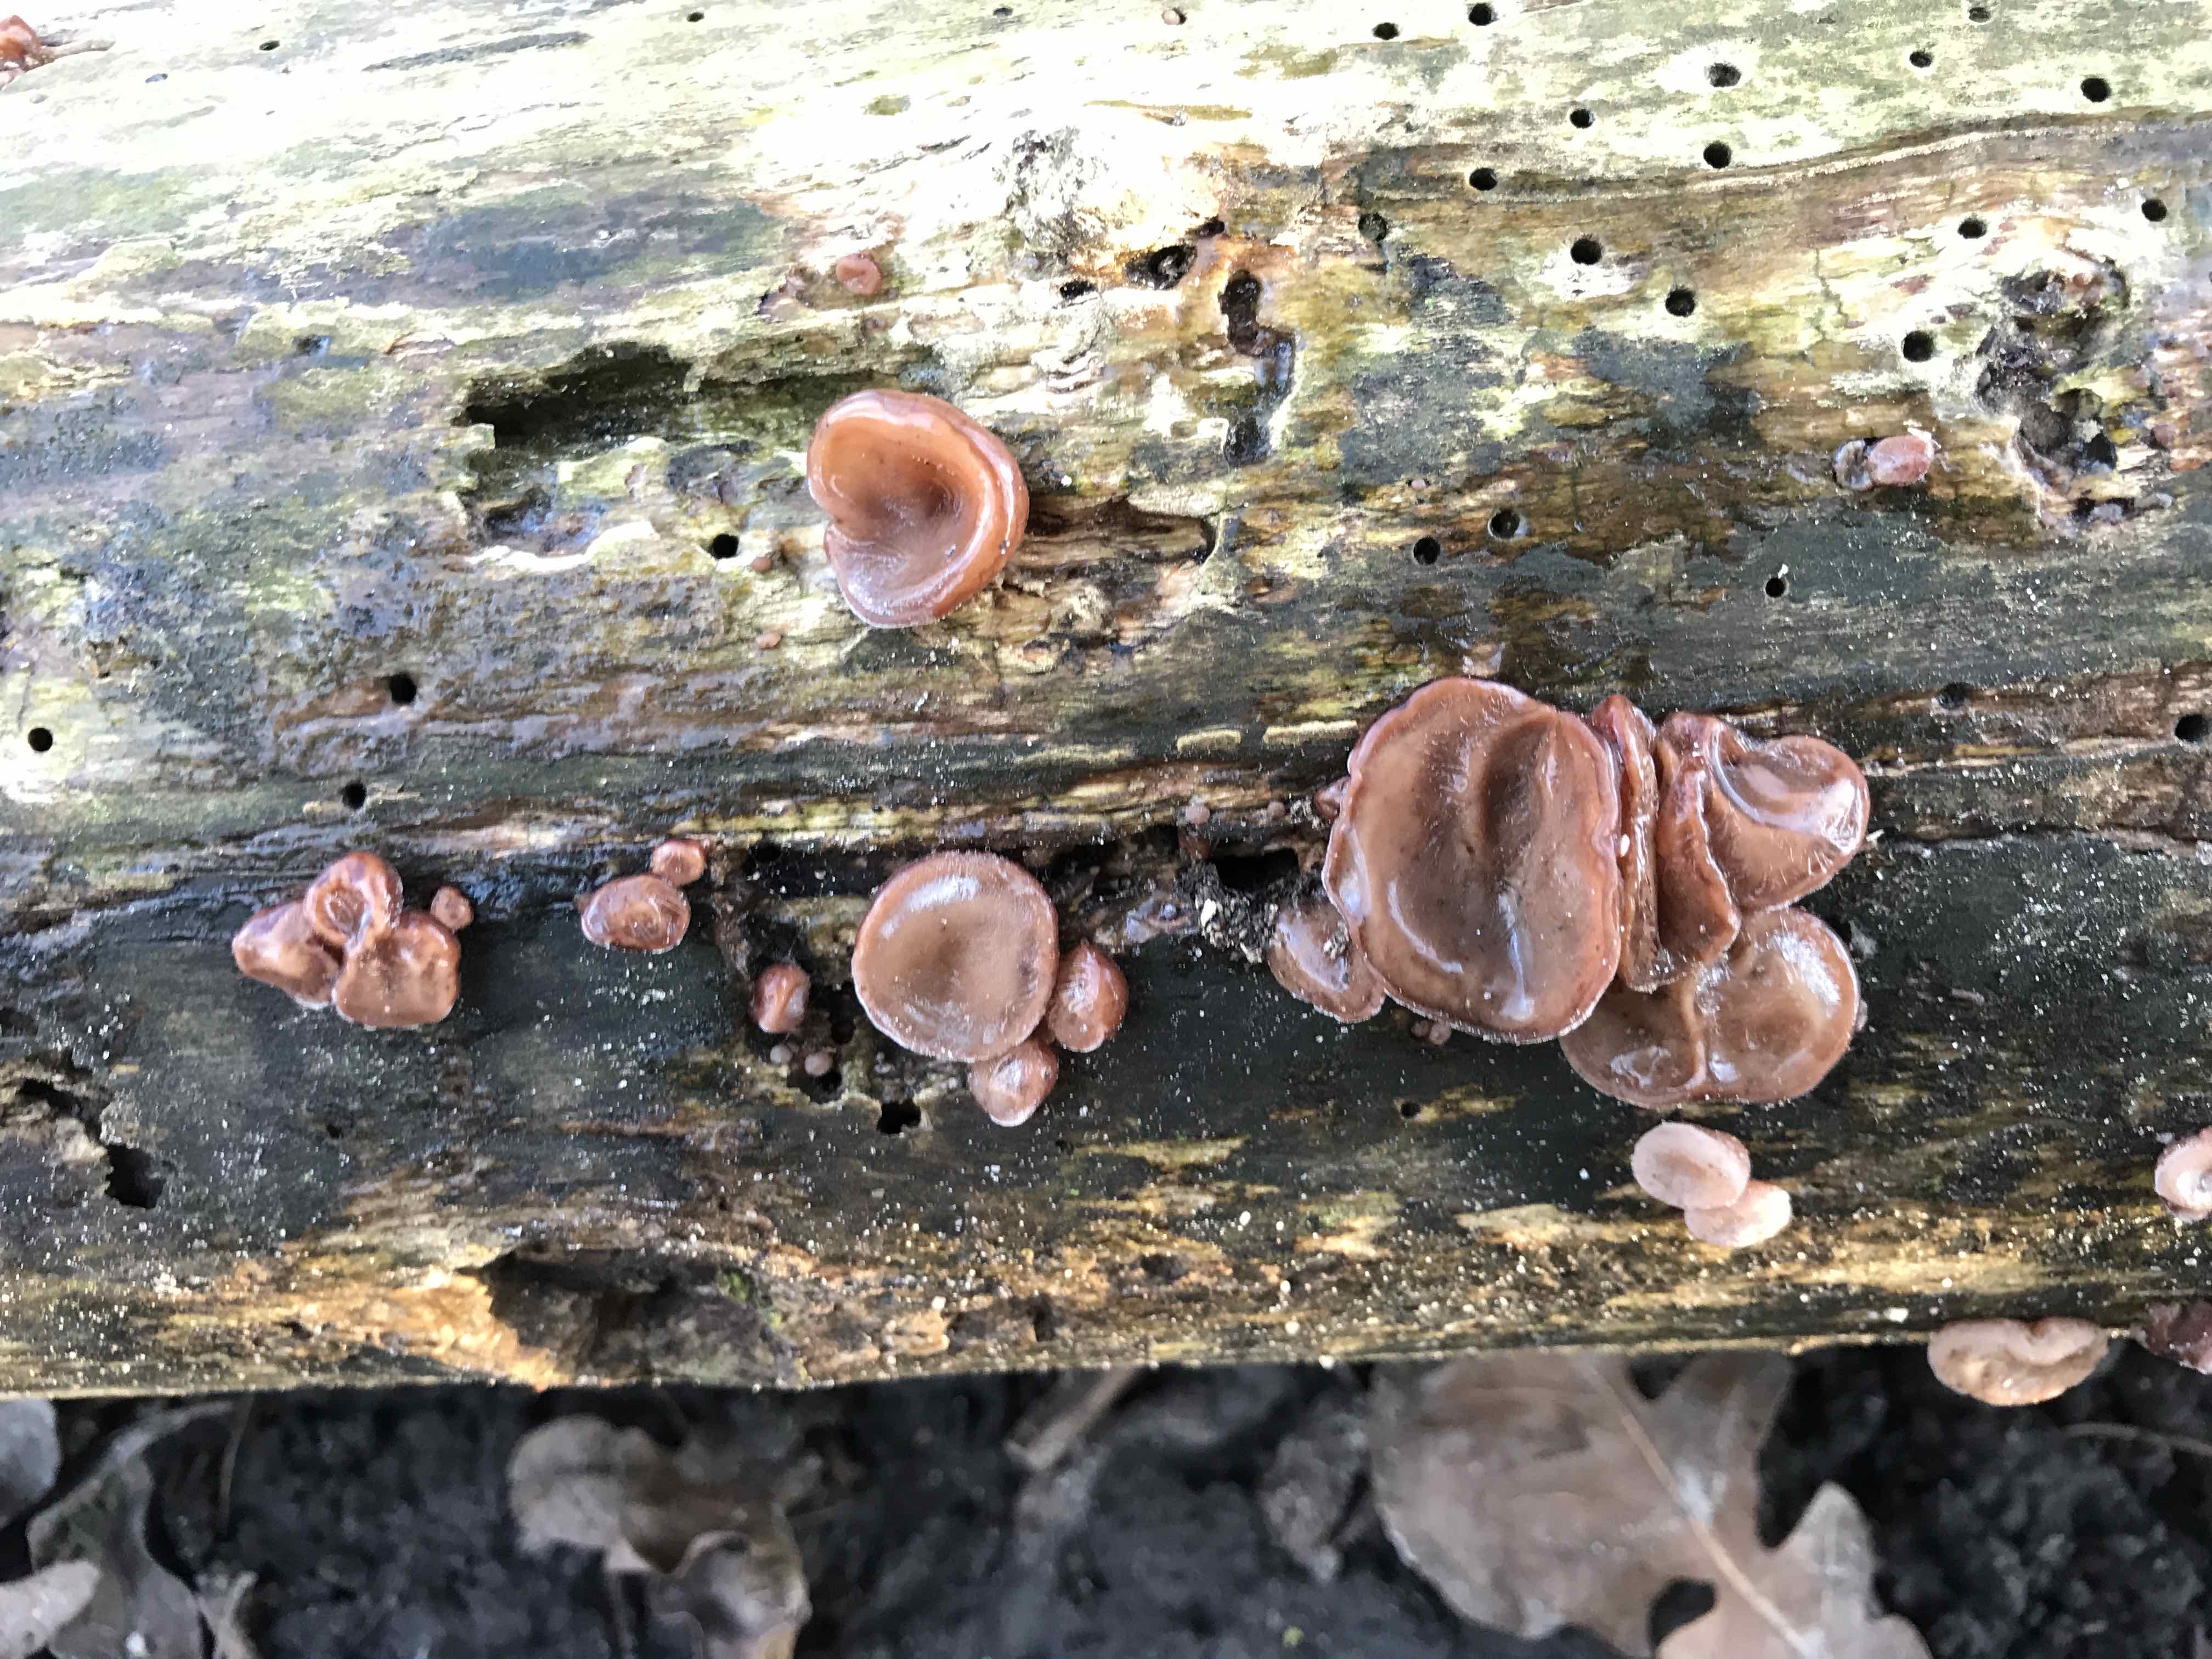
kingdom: Fungi
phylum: Basidiomycota
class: Agaricomycetes
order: Auriculariales
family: Auriculariaceae
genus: Auricularia
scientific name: Auricularia auricula-judae
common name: almindelig judasøre
